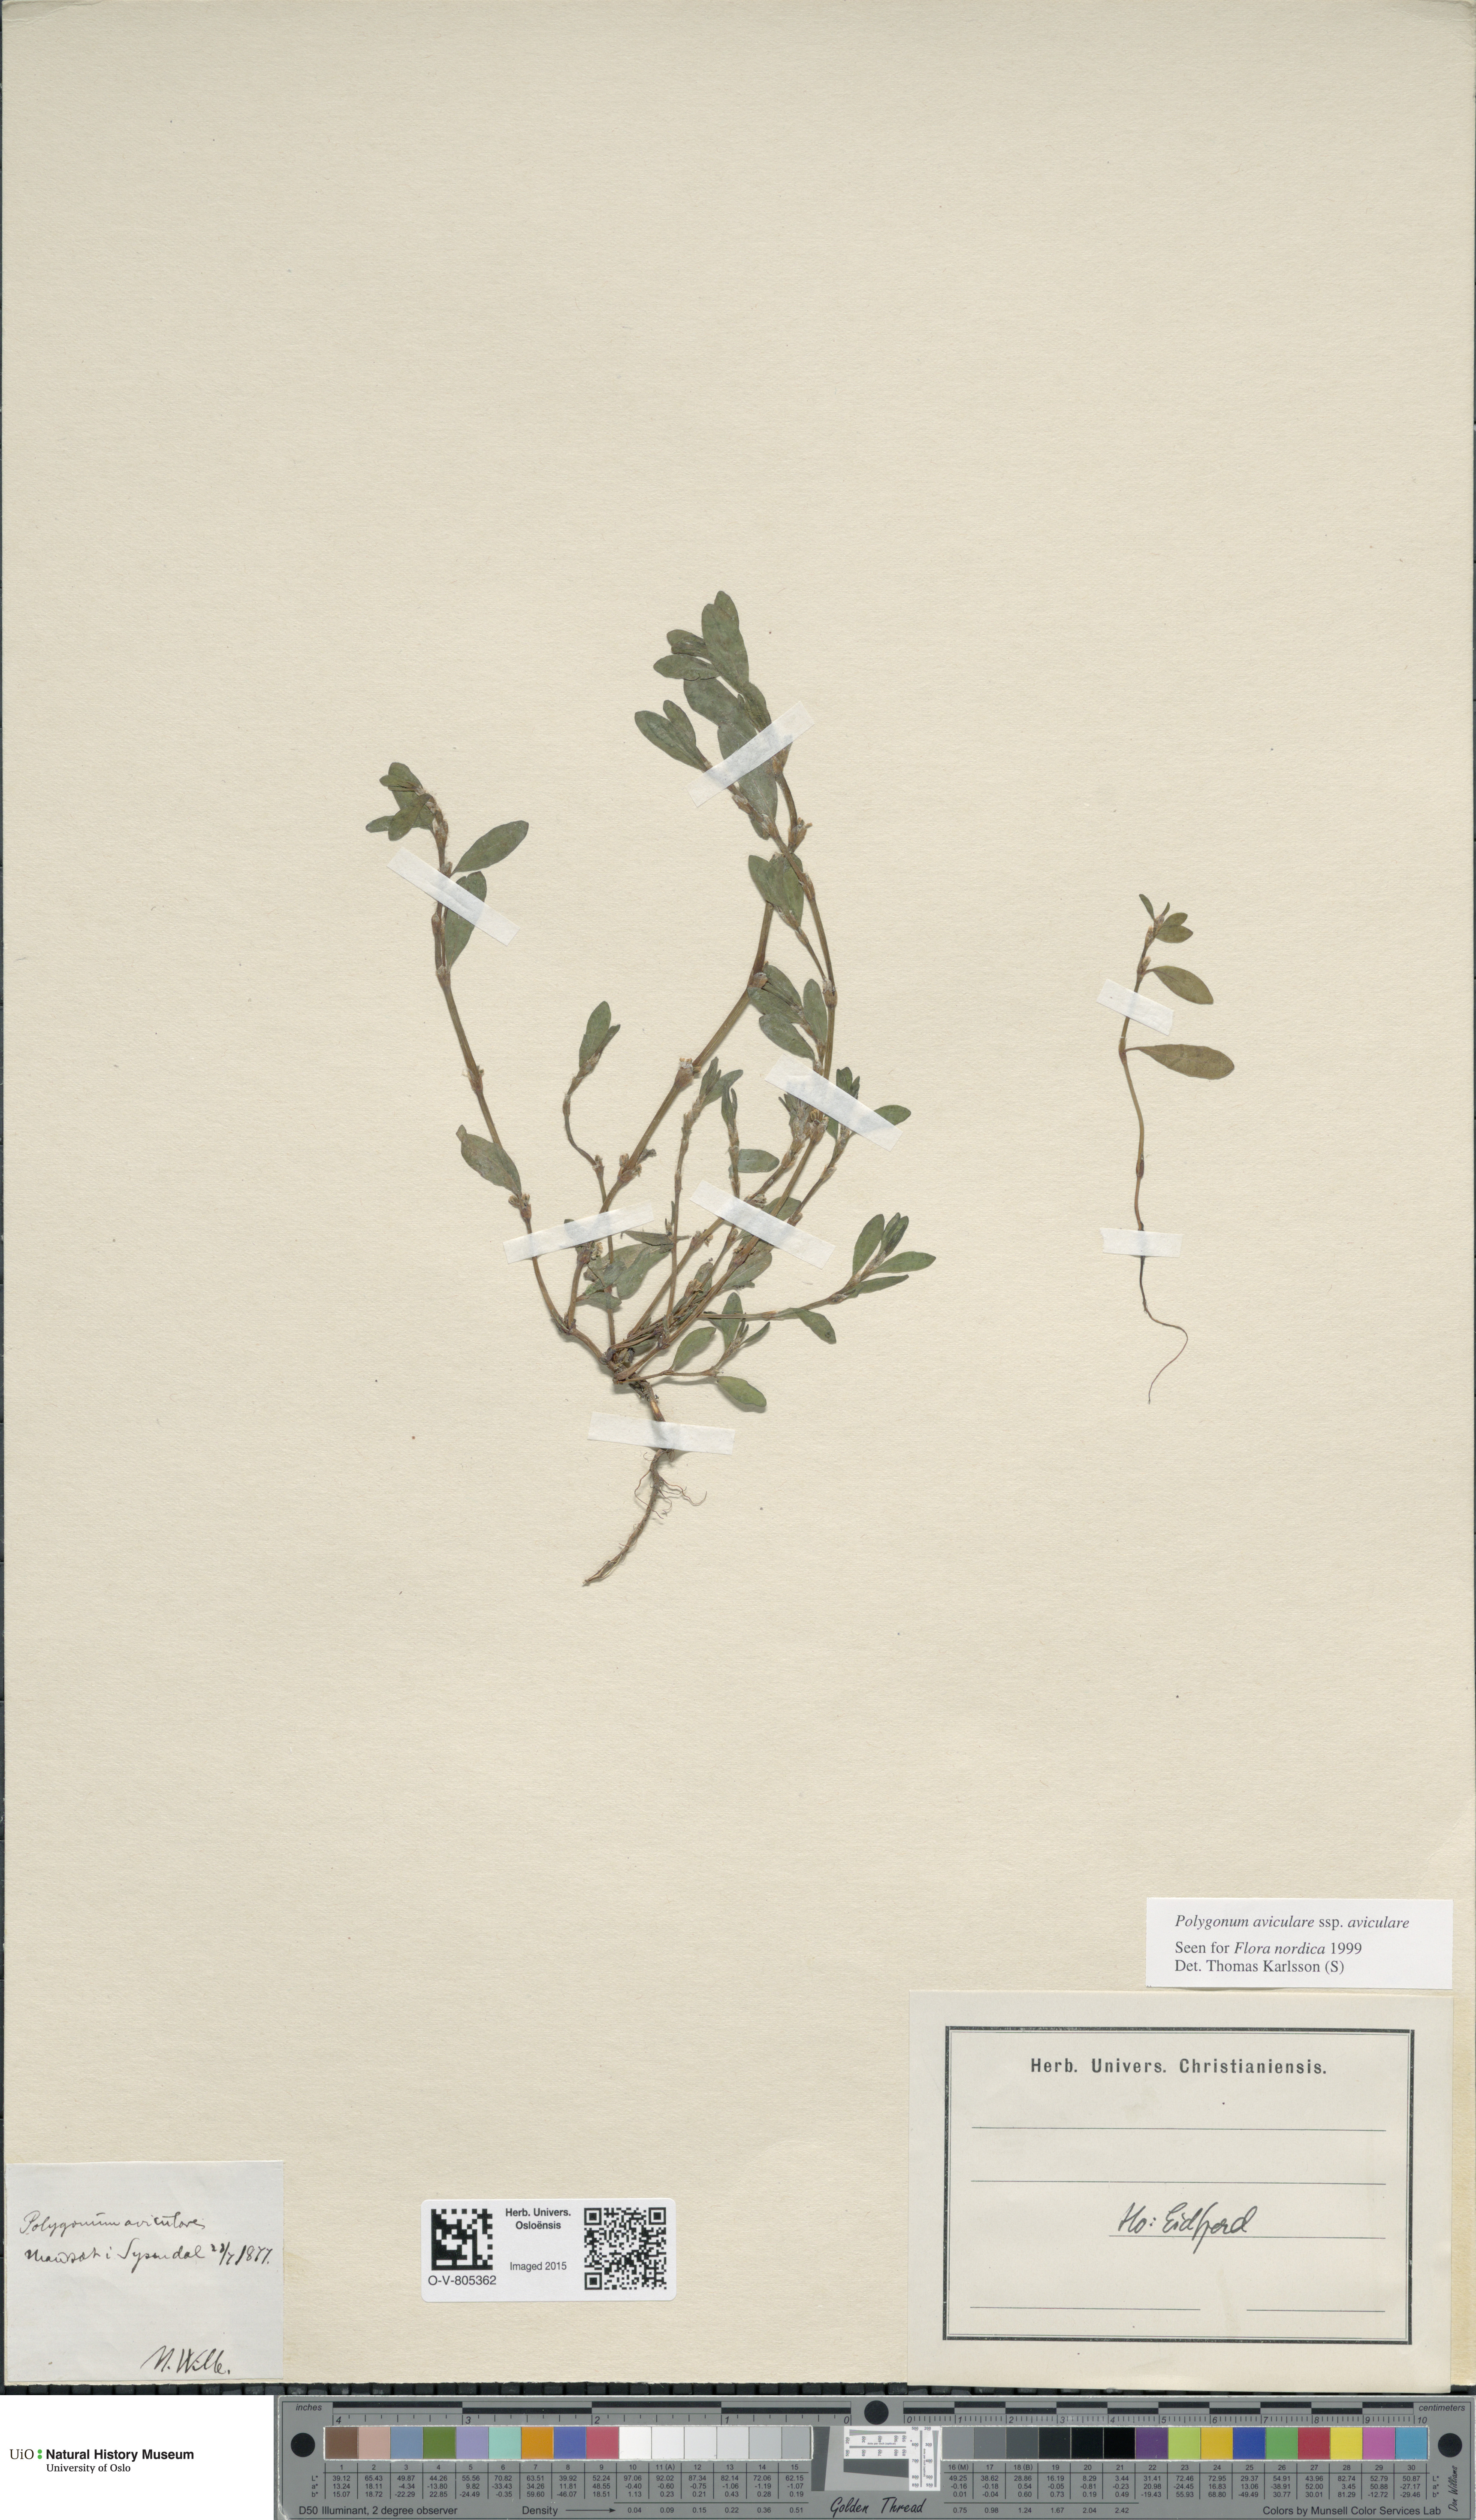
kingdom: Plantae
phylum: Tracheophyta
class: Magnoliopsida
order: Caryophyllales
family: Polygonaceae
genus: Polygonum
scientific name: Polygonum aviculare
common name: Prostrate knotweed
